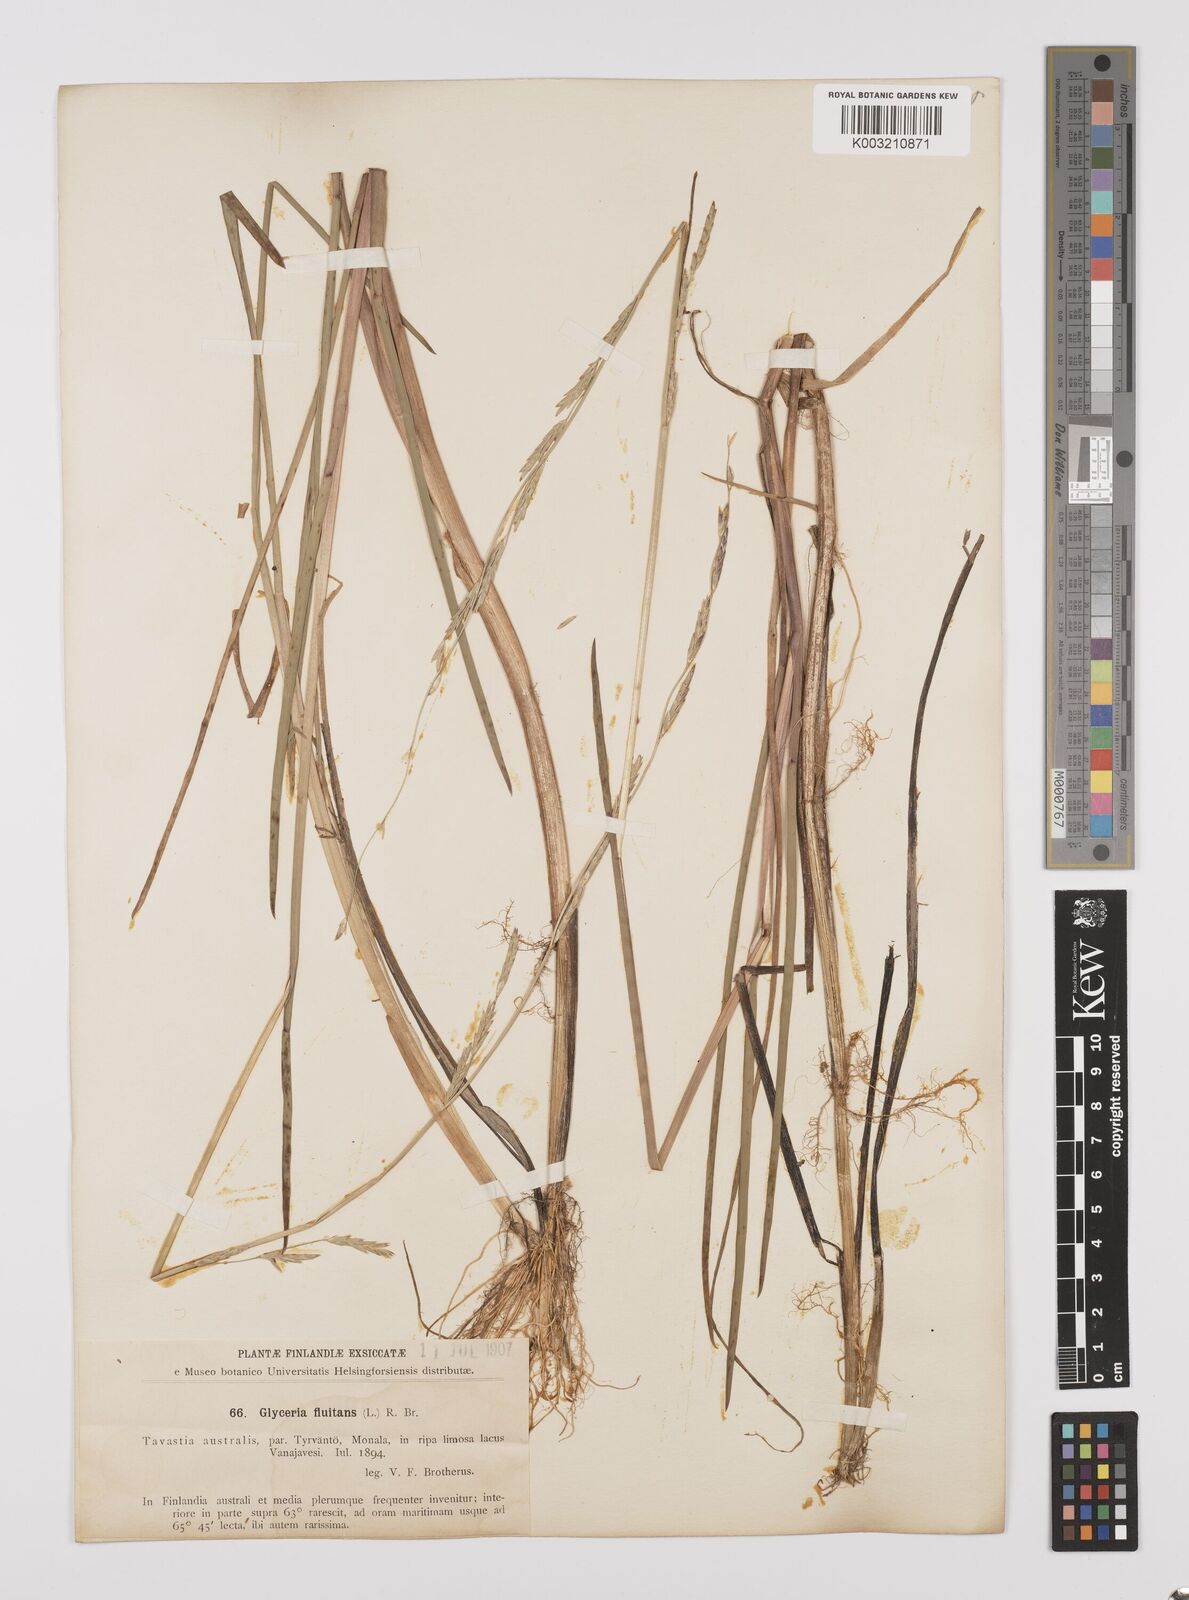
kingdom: Plantae
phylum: Tracheophyta
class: Liliopsida
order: Poales
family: Poaceae
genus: Glyceria
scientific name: Glyceria fluitans
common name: Floating sweet-grass
